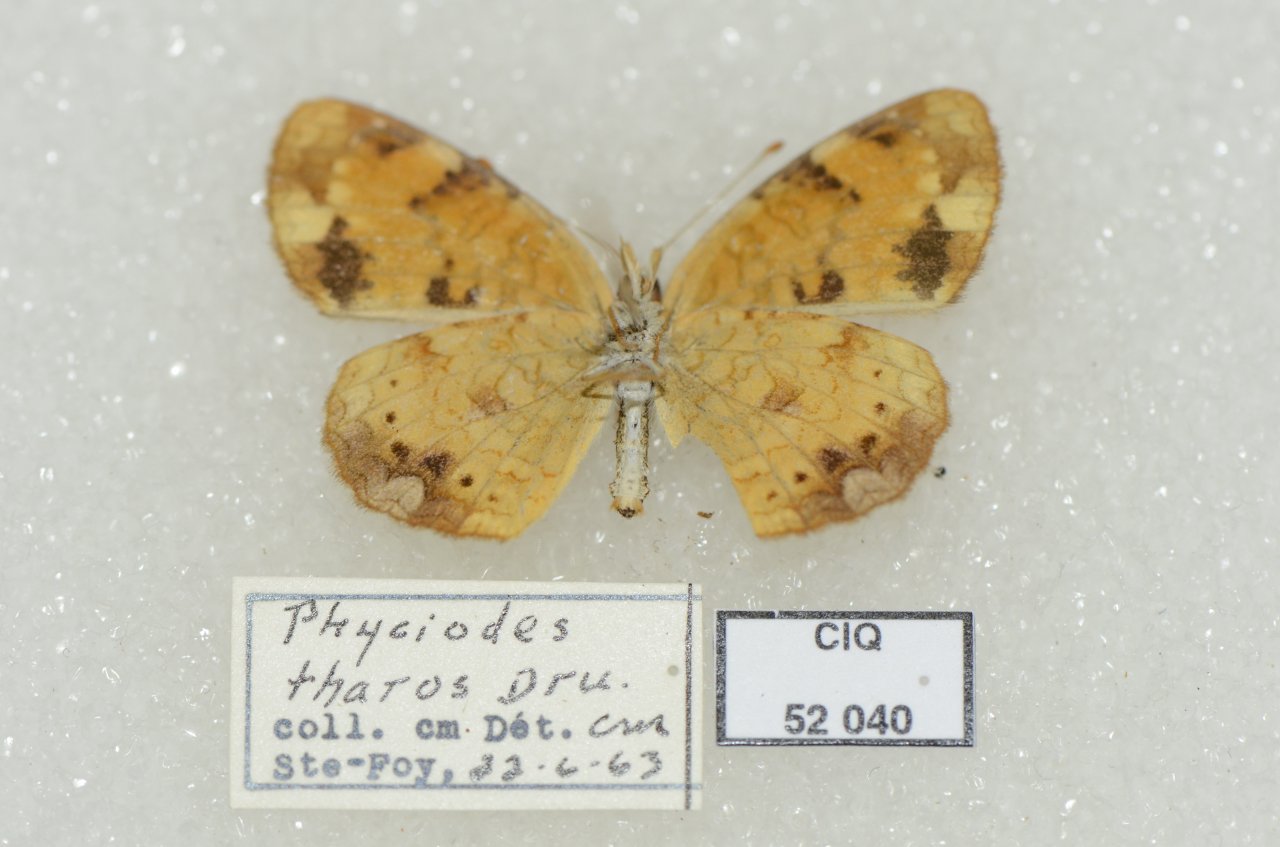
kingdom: Animalia
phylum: Arthropoda
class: Insecta
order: Lepidoptera
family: Nymphalidae
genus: Phyciodes
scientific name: Phyciodes tharos
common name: Northern Crescent
